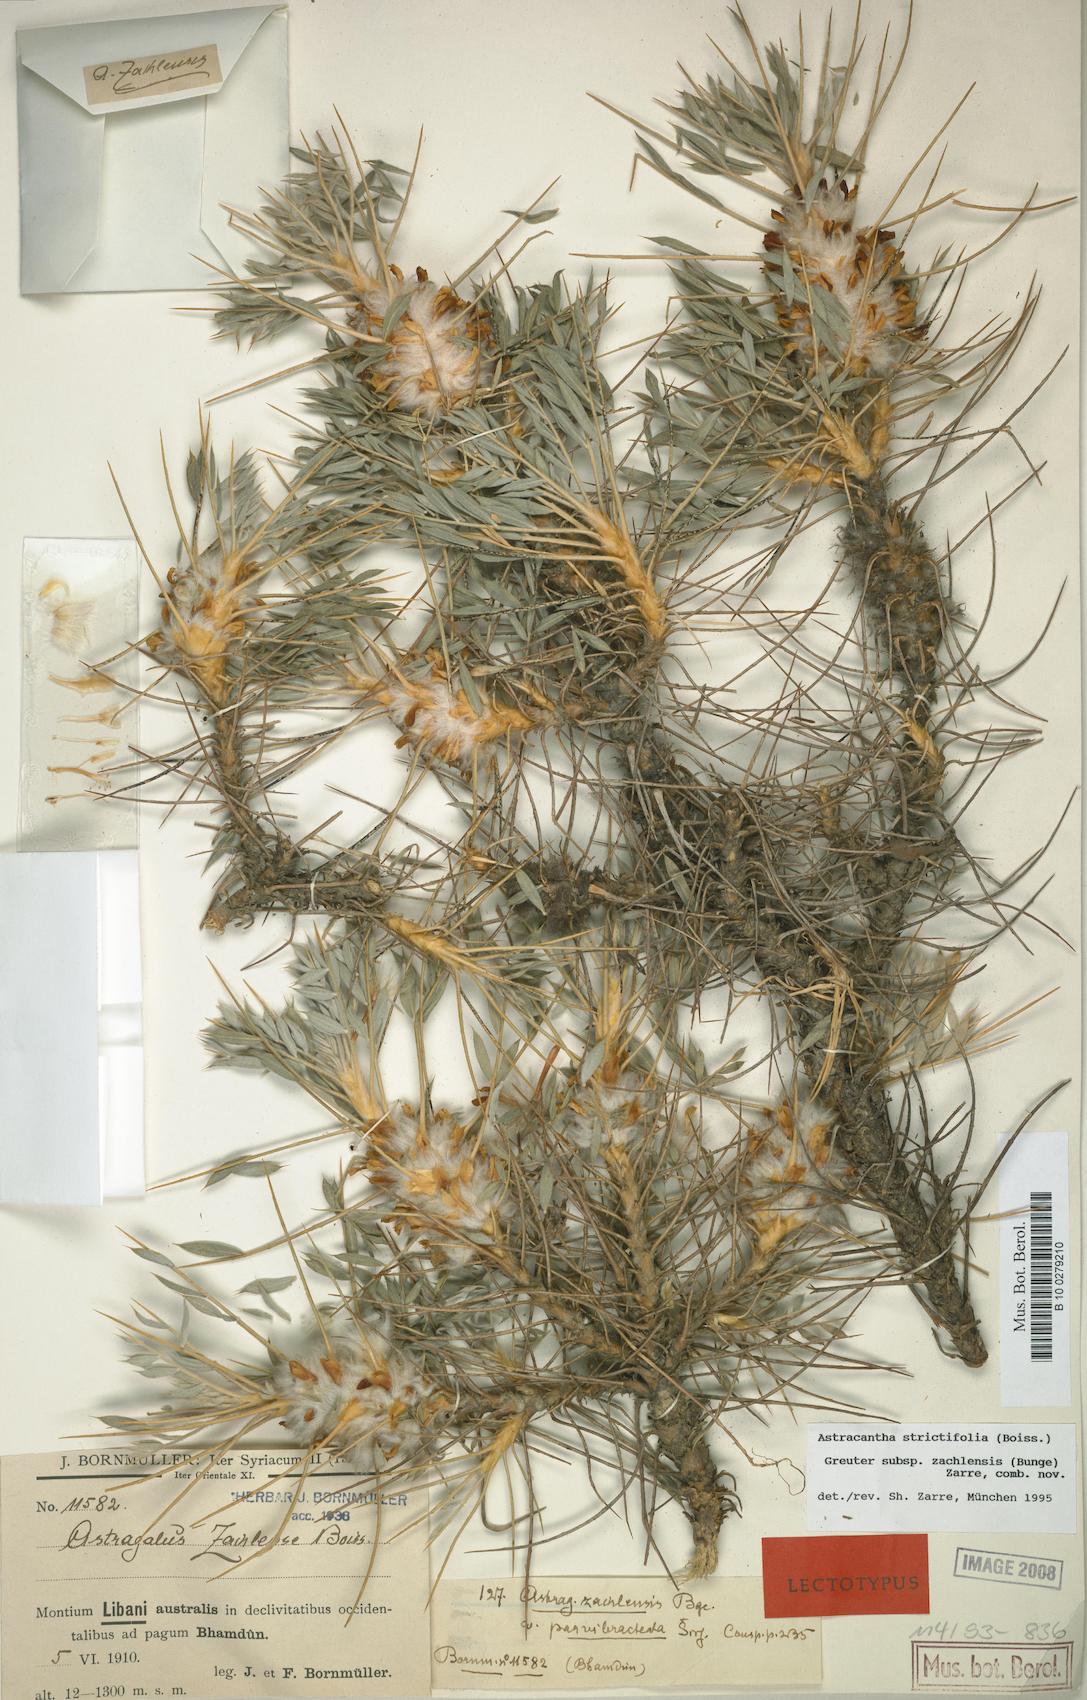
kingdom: Plantae
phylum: Tracheophyta
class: Magnoliopsida
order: Fabales
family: Fabaceae
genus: Astragalus
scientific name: Astragalus strictifolius
